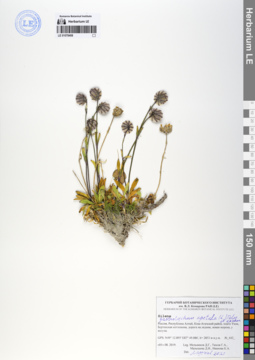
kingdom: Plantae
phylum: Tracheophyta
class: Magnoliopsida
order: Caryophyllales
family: Caryophyllaceae
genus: Silene
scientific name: Silene wahlbergella
